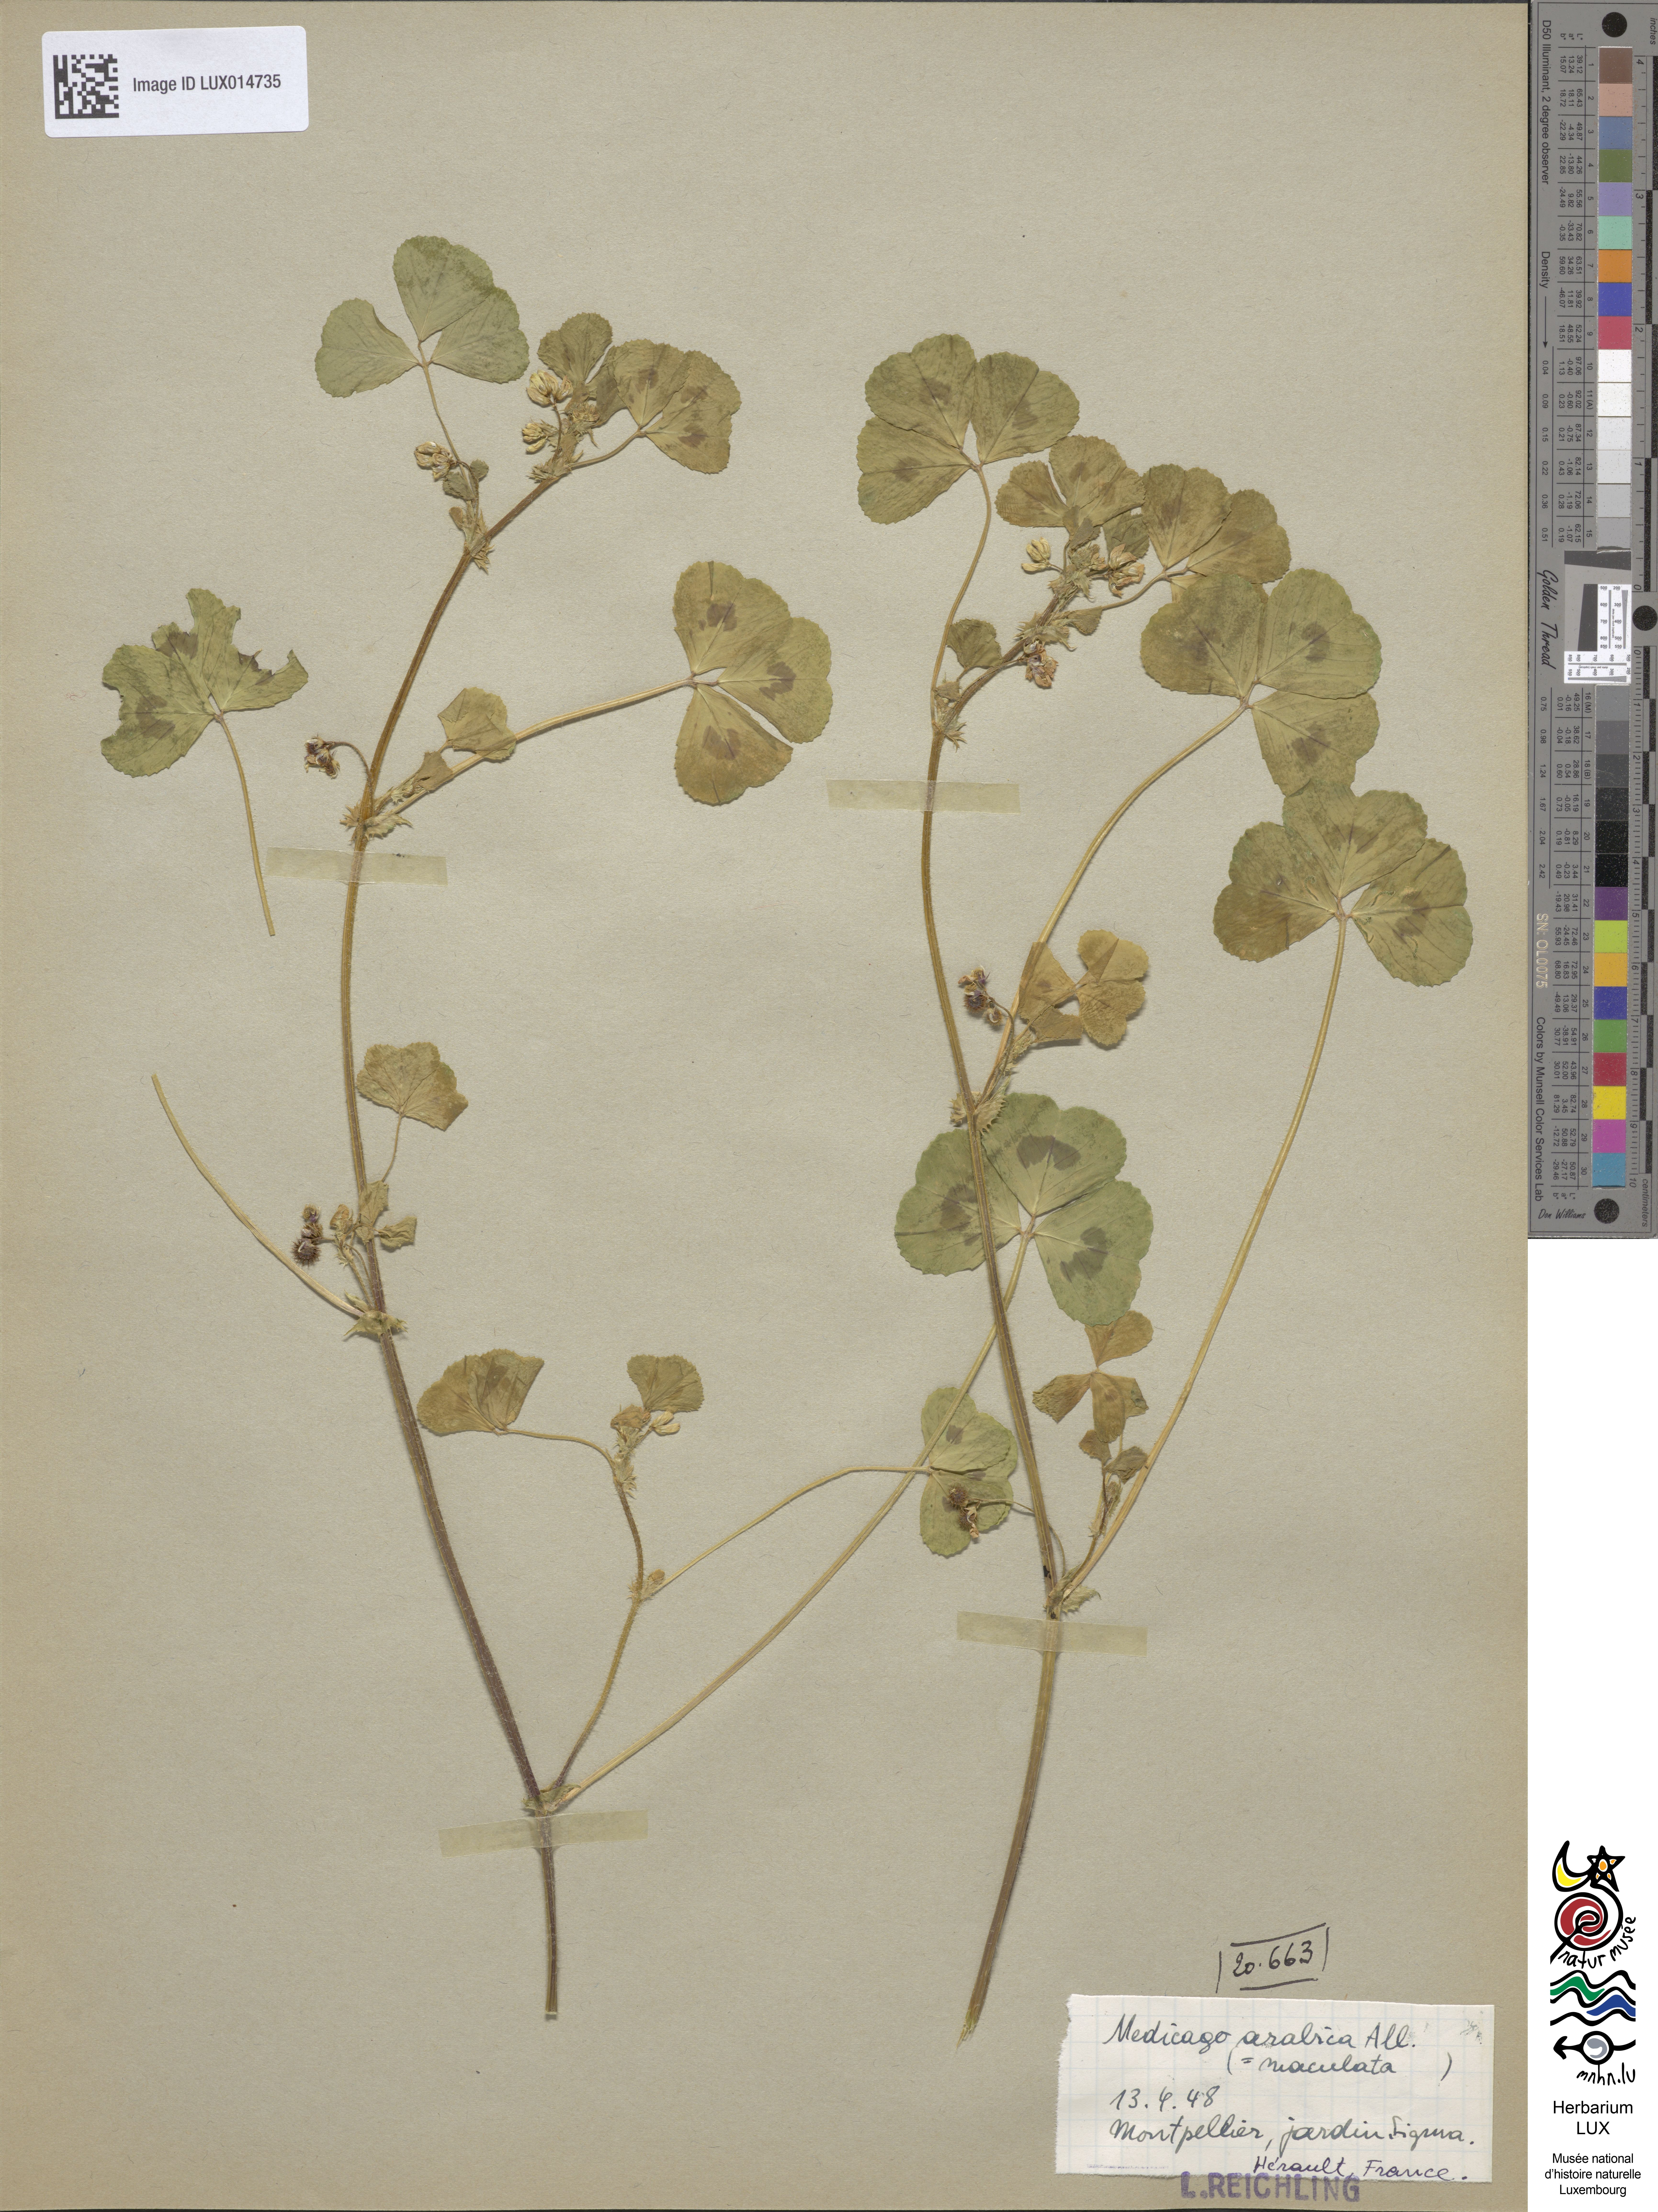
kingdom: Plantae
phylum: Tracheophyta
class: Magnoliopsida
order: Fabales
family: Fabaceae
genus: Medicago
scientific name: Medicago arabica
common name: Spotted medick
